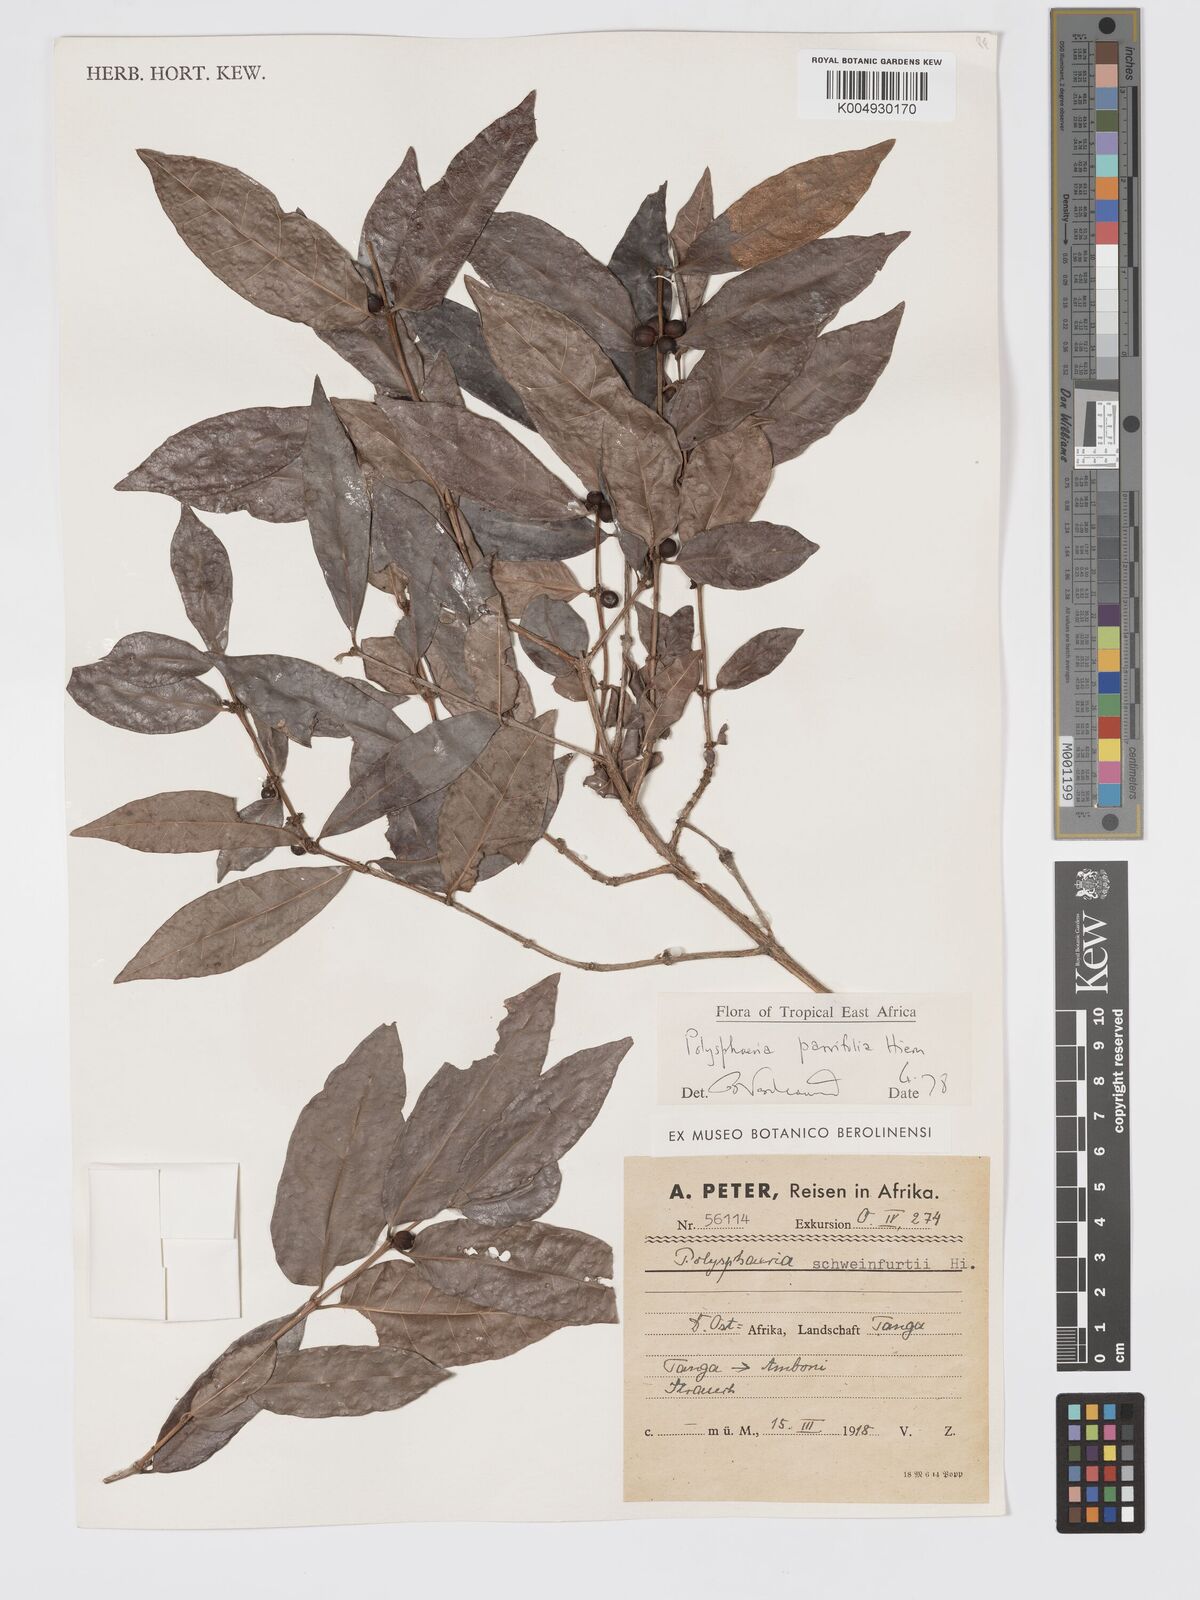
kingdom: Plantae
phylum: Tracheophyta
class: Magnoliopsida
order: Gentianales
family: Rubiaceae
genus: Polysphaeria
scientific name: Polysphaeria parvifolia
